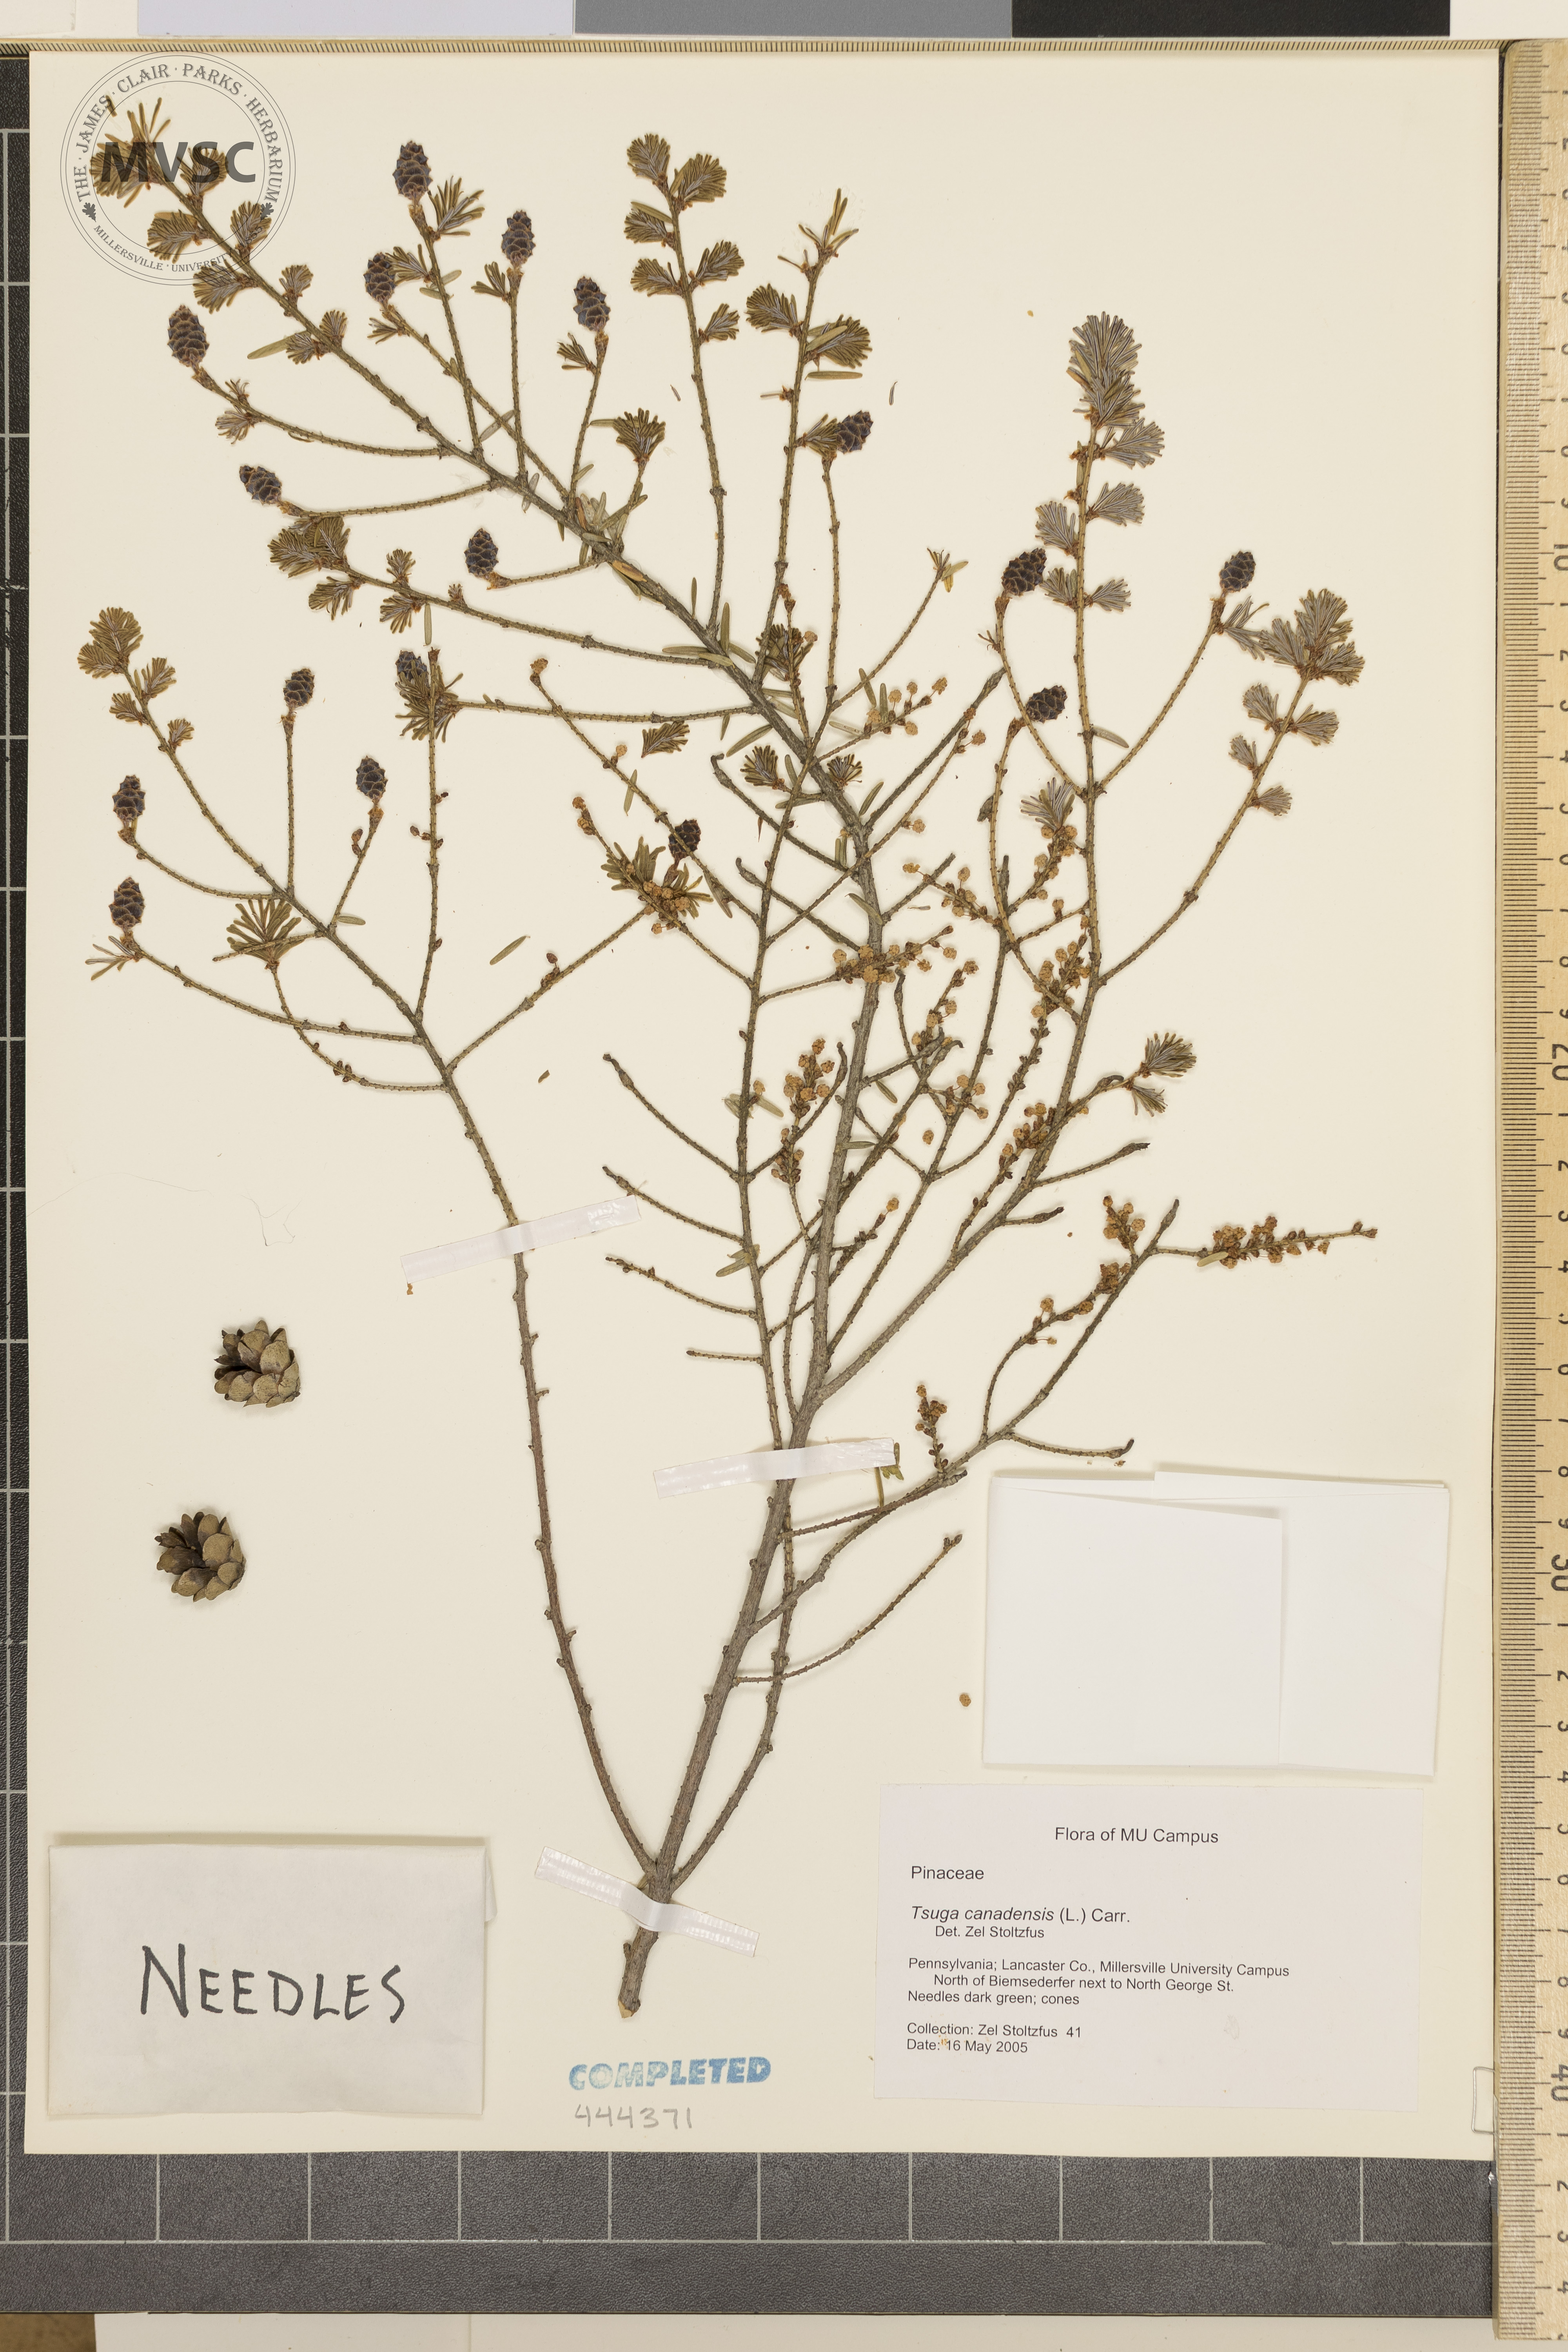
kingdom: Plantae
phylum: Tracheophyta
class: Pinopsida
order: Pinales
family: Pinaceae
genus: Tsuga
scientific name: Tsuga canadensis
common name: Eastern hemlock
